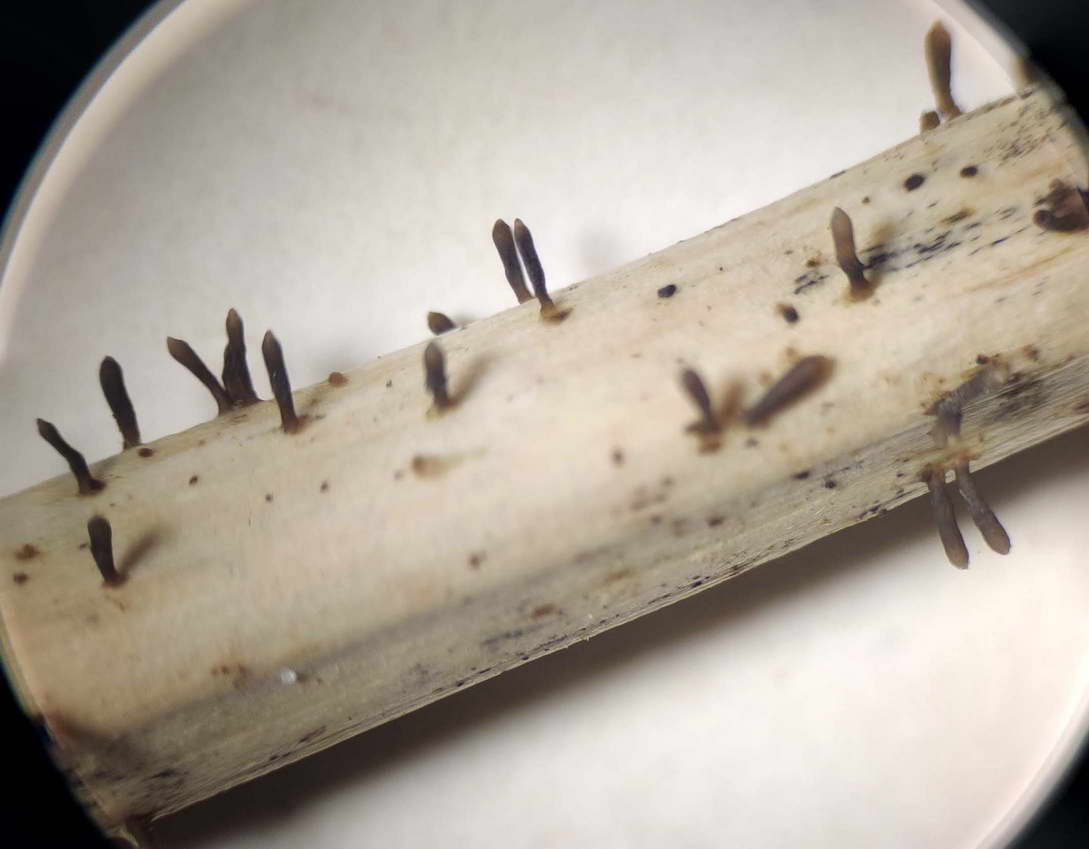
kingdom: Fungi
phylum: Ascomycota
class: Dothideomycetes
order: Acrospermales
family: Acrospermaceae
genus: Acrospermum
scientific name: Acrospermum compressum
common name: nælde-stængeltunge
